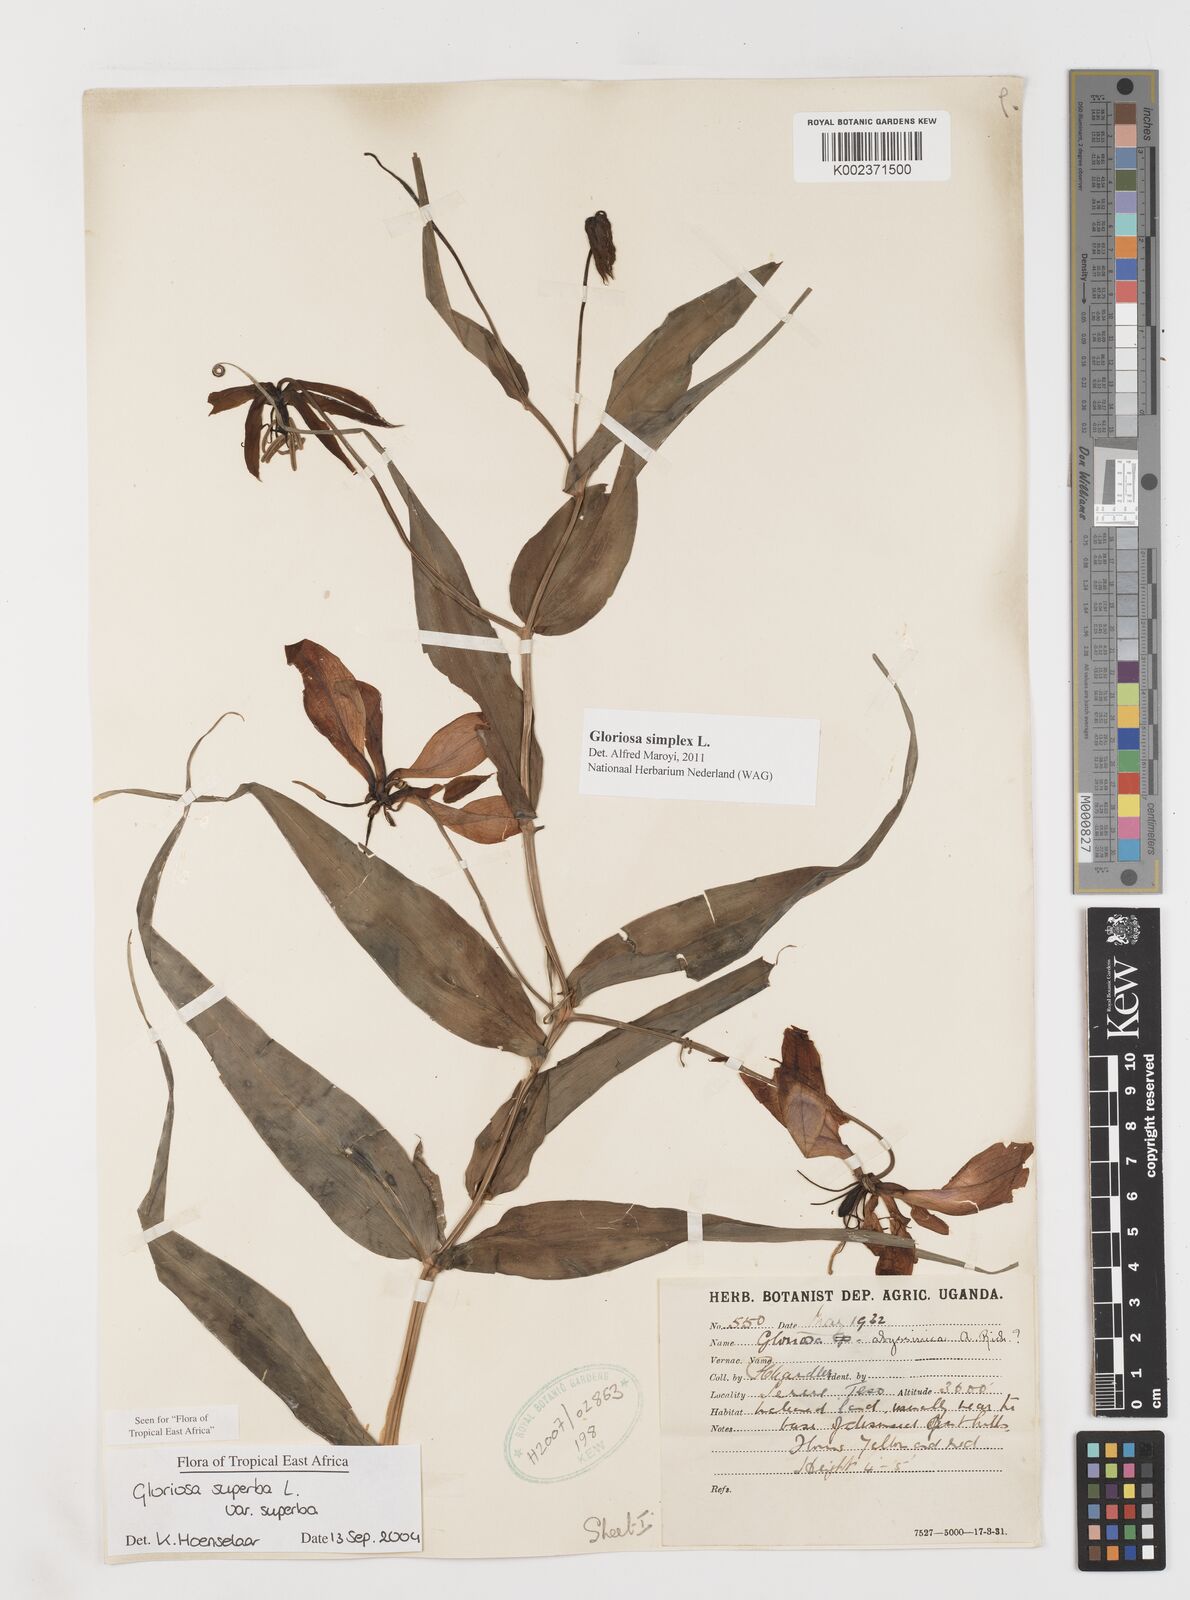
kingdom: Plantae
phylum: Tracheophyta
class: Liliopsida
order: Liliales
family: Colchicaceae
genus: Gloriosa
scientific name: Gloriosa simplex
